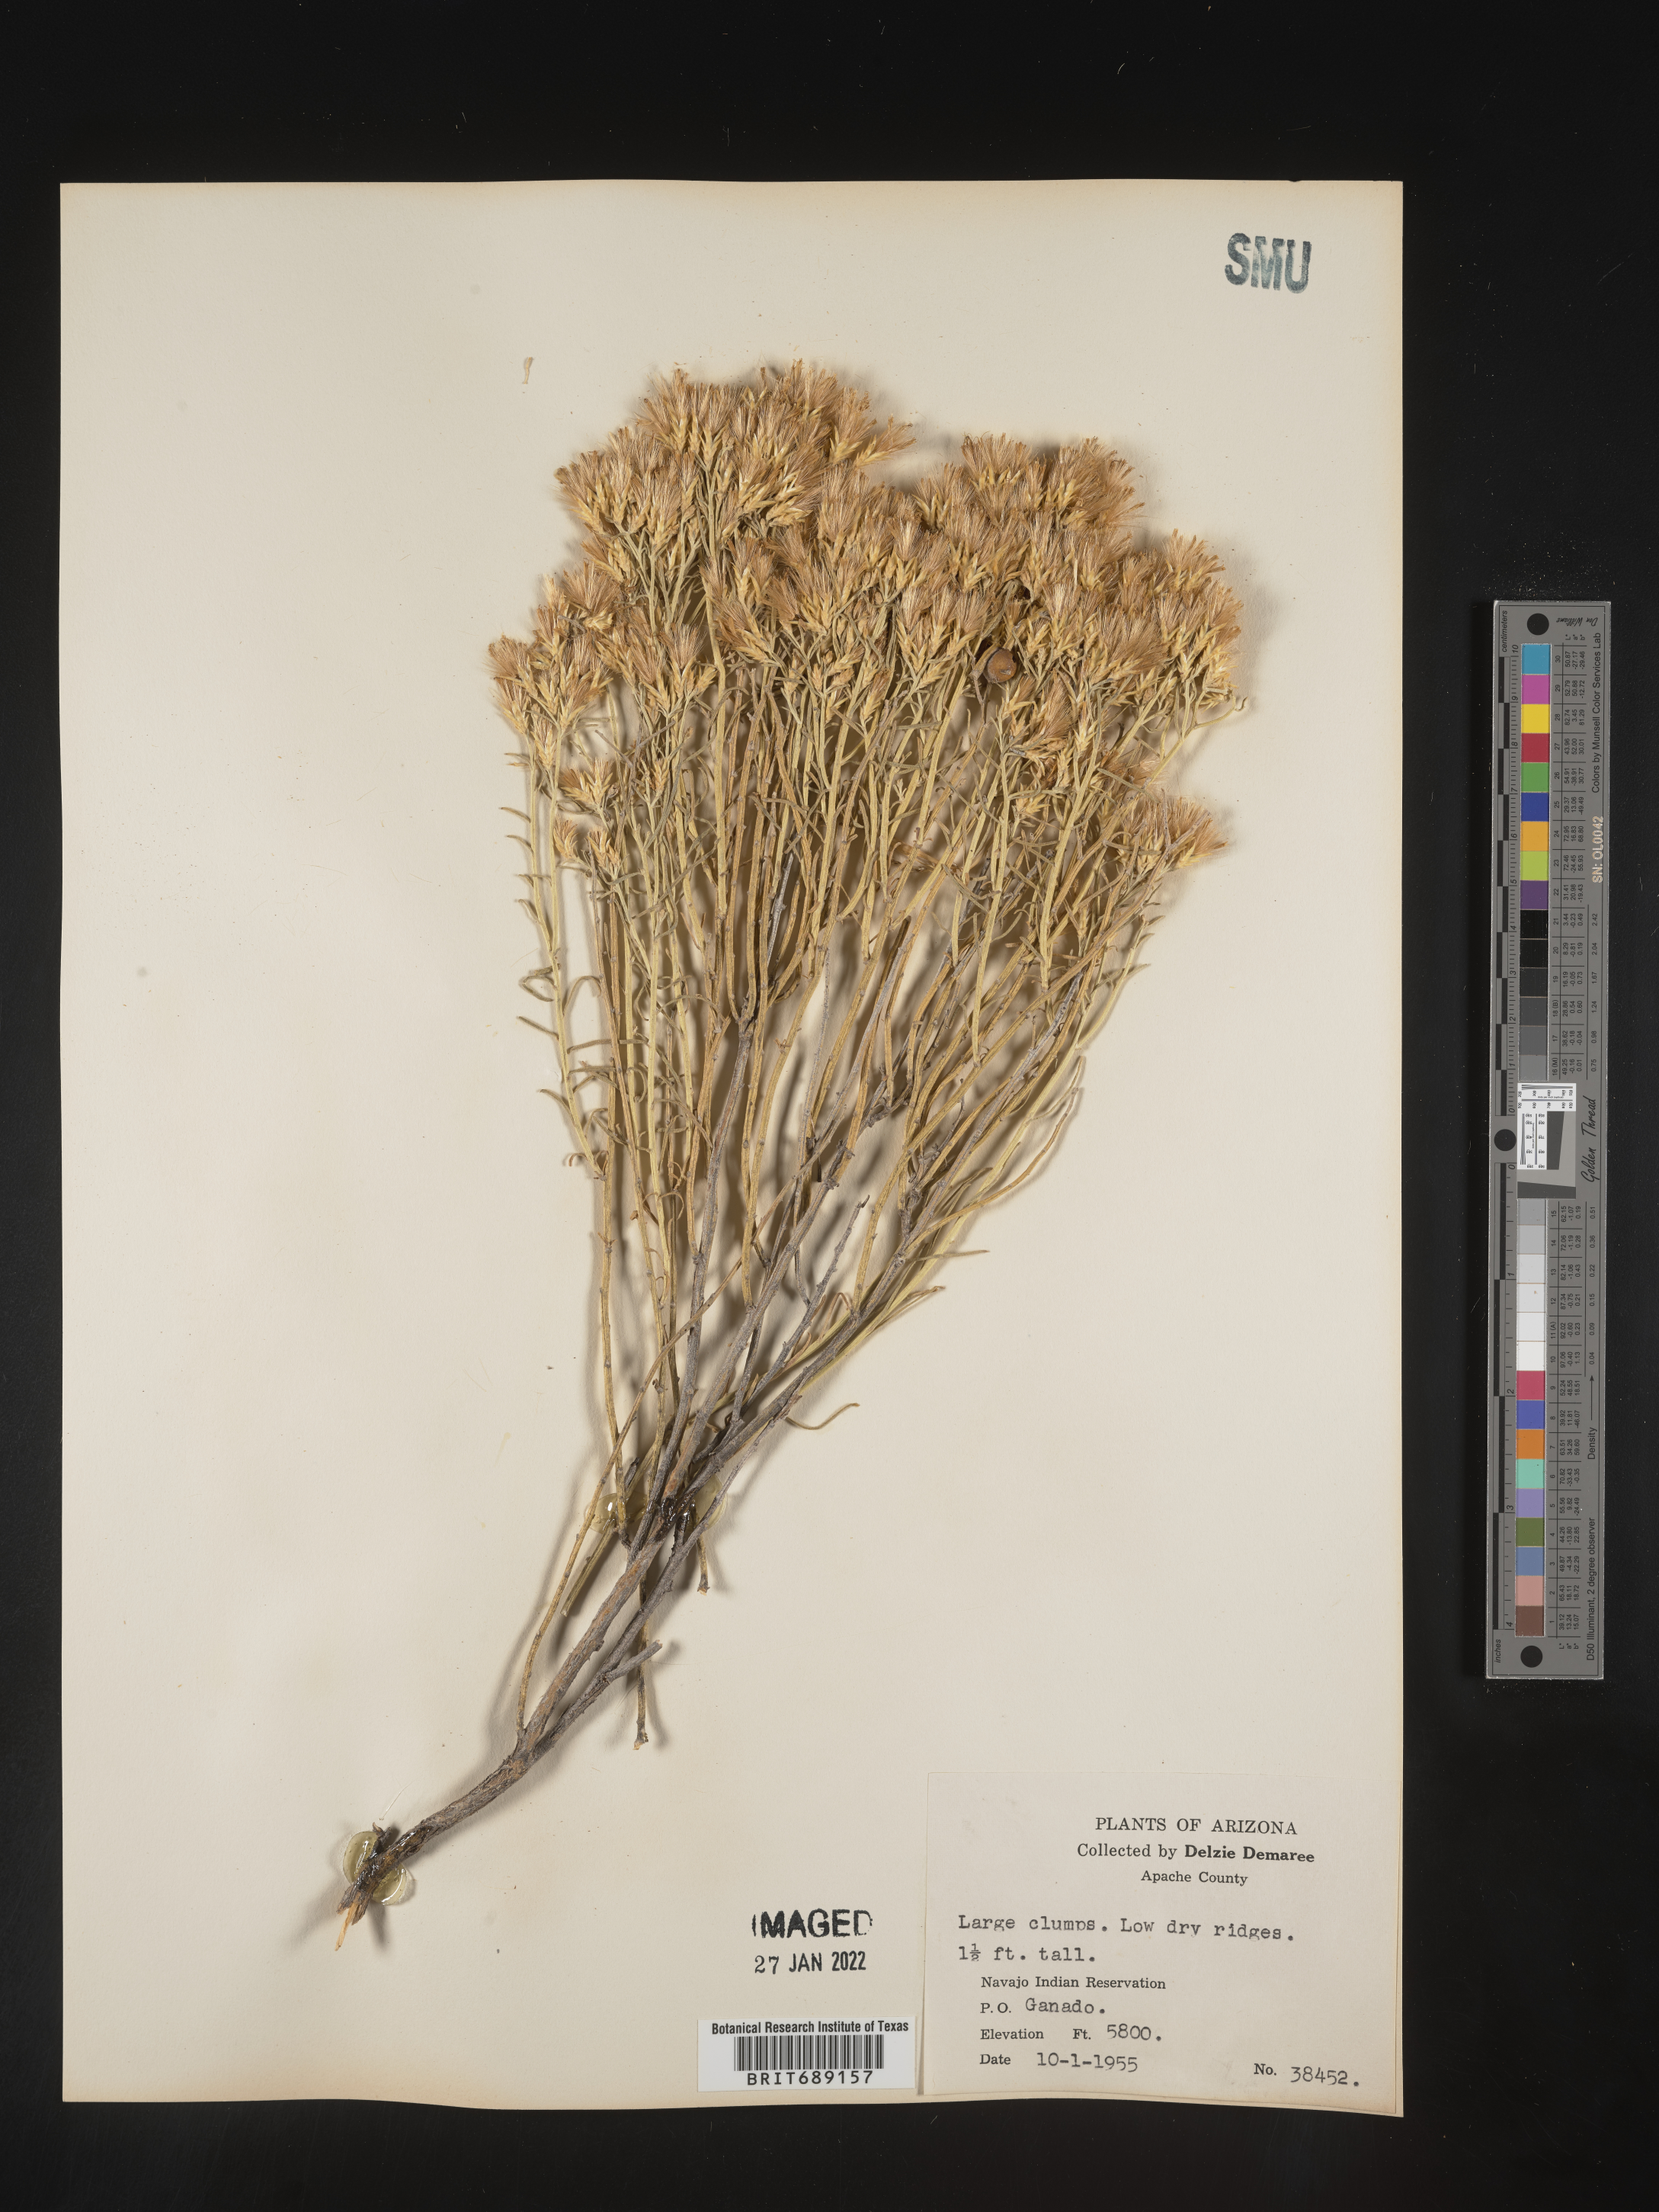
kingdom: Plantae
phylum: Tracheophyta
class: Magnoliopsida
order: Asterales
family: Asteraceae
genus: Chrysothamnus
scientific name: Chrysothamnus
